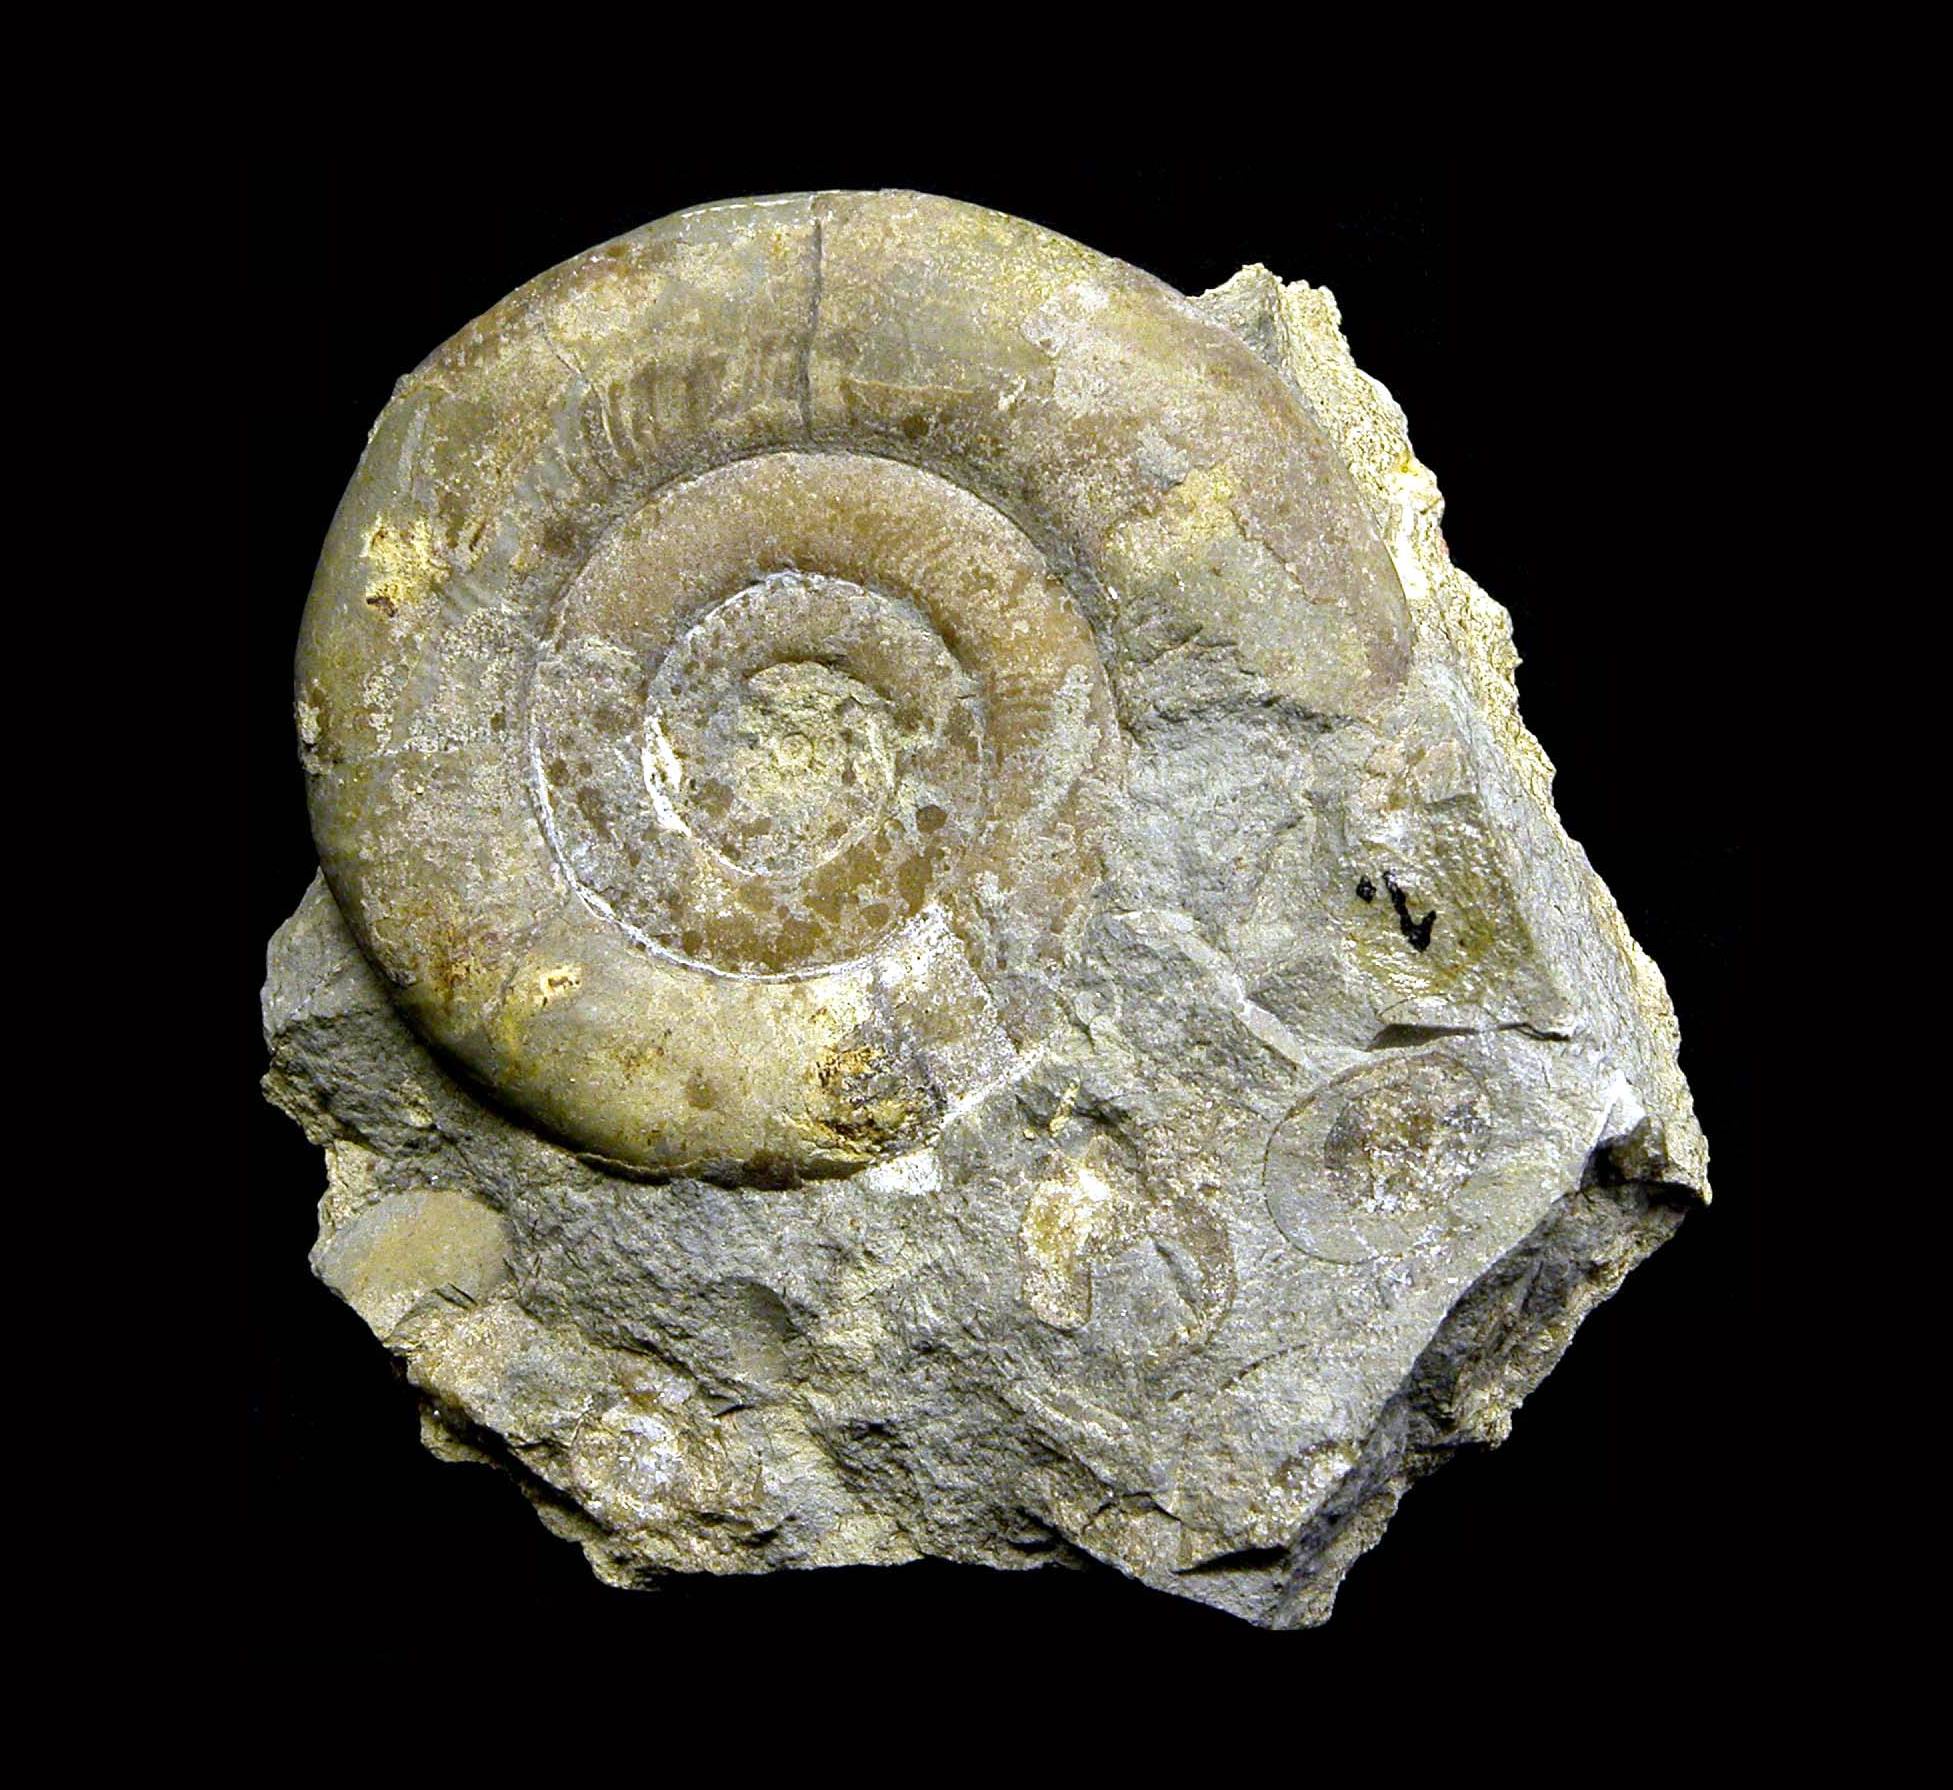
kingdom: Animalia
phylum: Mollusca
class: Cephalopoda
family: Psiloceratidae
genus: Psiloceras
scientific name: Psiloceras
